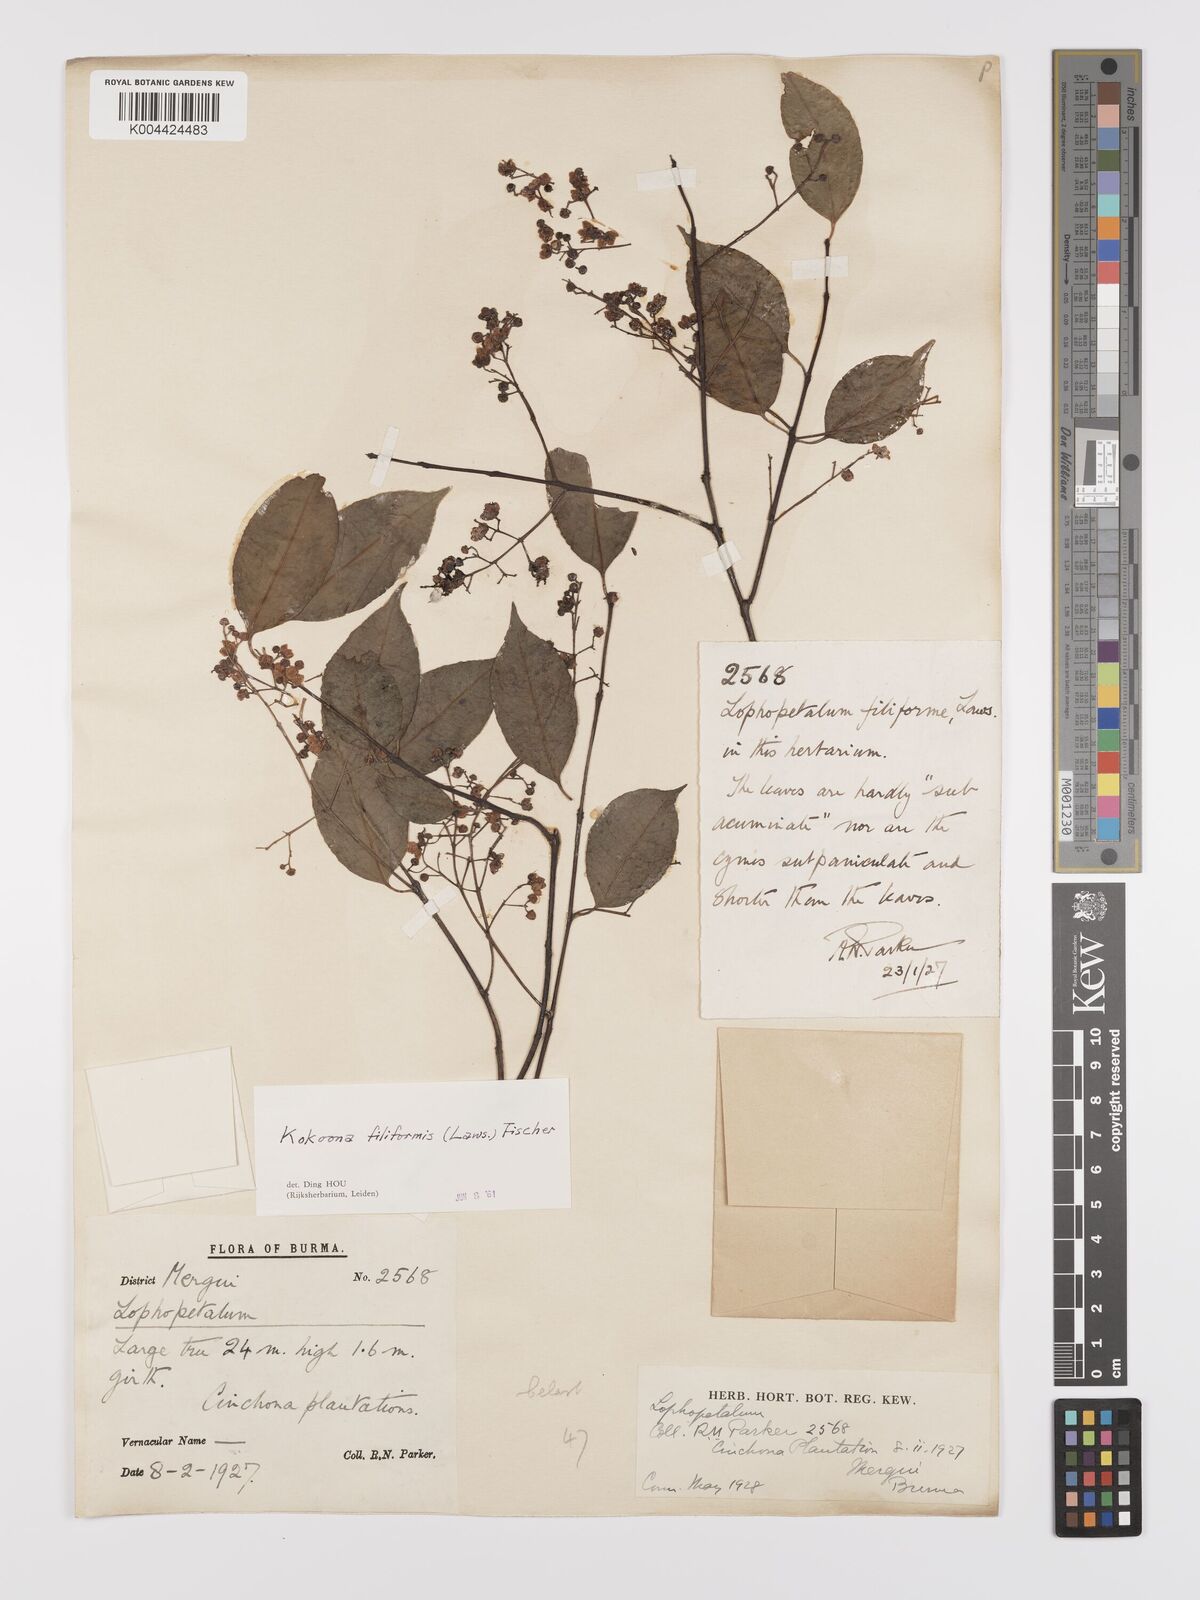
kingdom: Plantae
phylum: Tracheophyta
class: Magnoliopsida
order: Celastrales
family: Celastraceae
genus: Kokoona
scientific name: Kokoona filiformis
